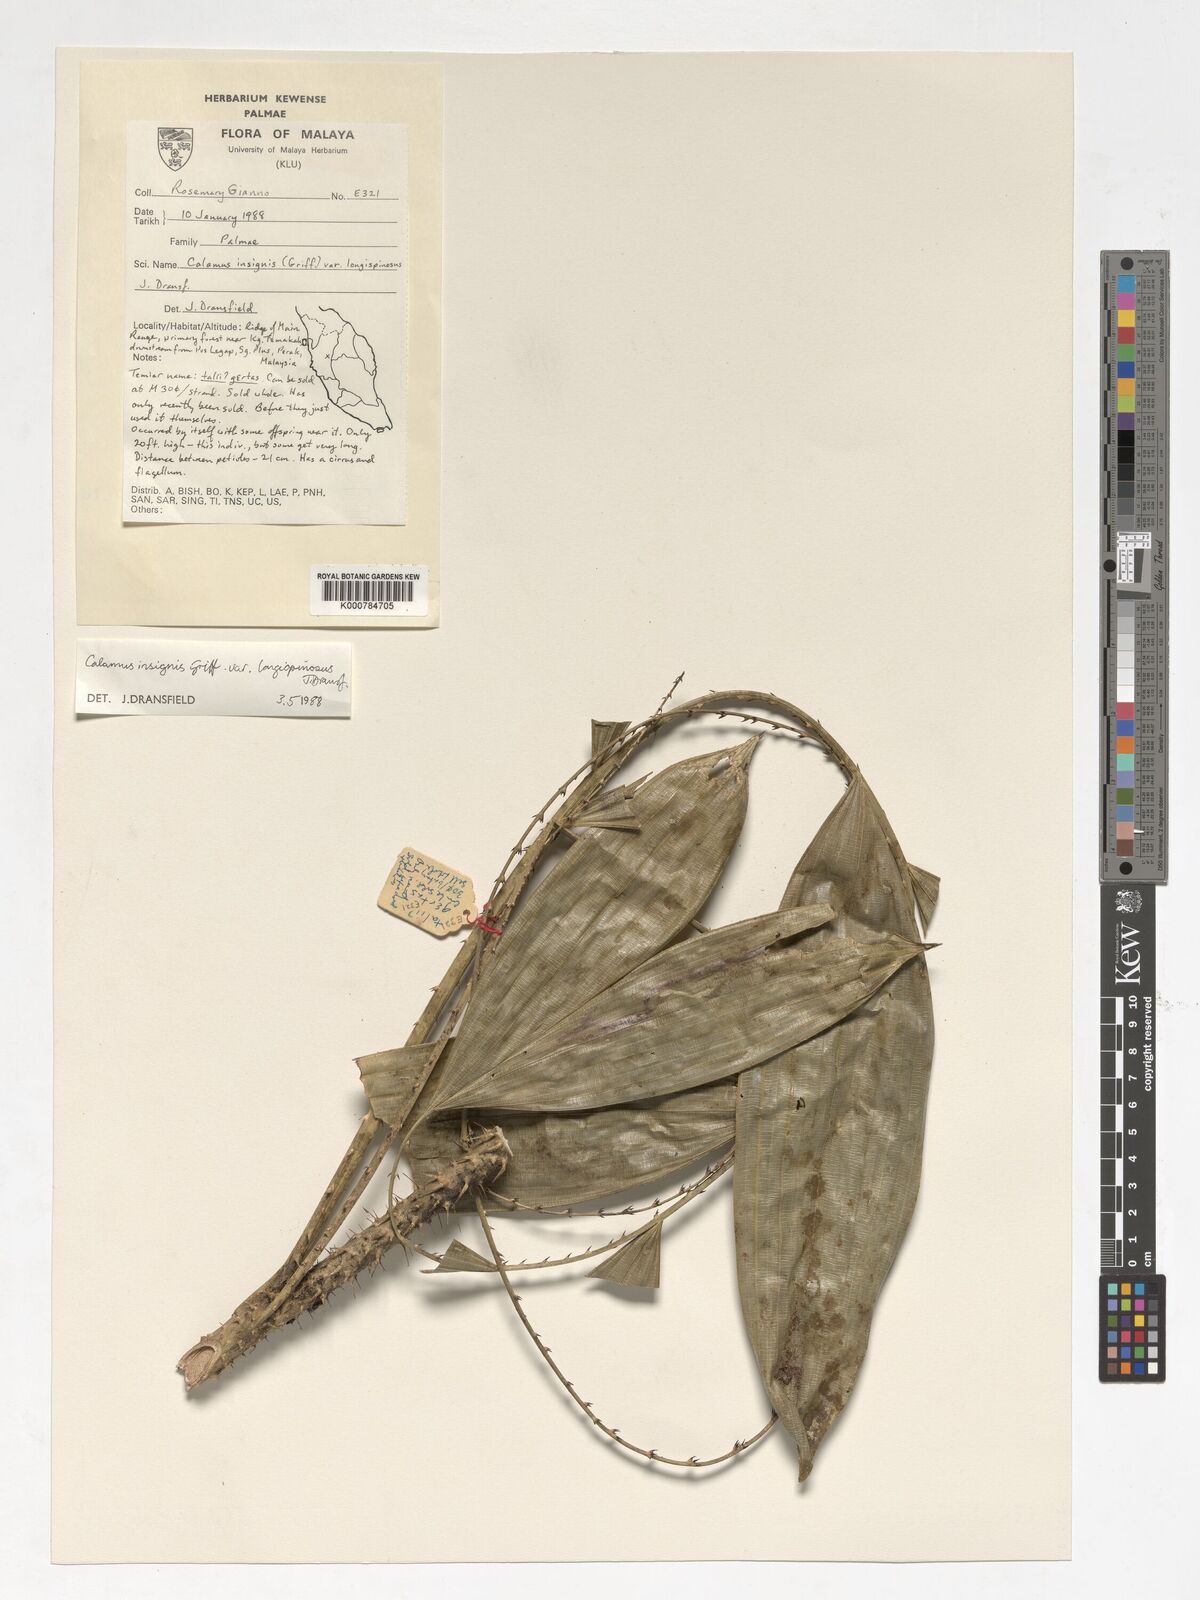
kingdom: Plantae
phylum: Tracheophyta
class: Liliopsida
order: Arecales
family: Arecaceae
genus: Calamus
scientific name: Calamus longiusculus
